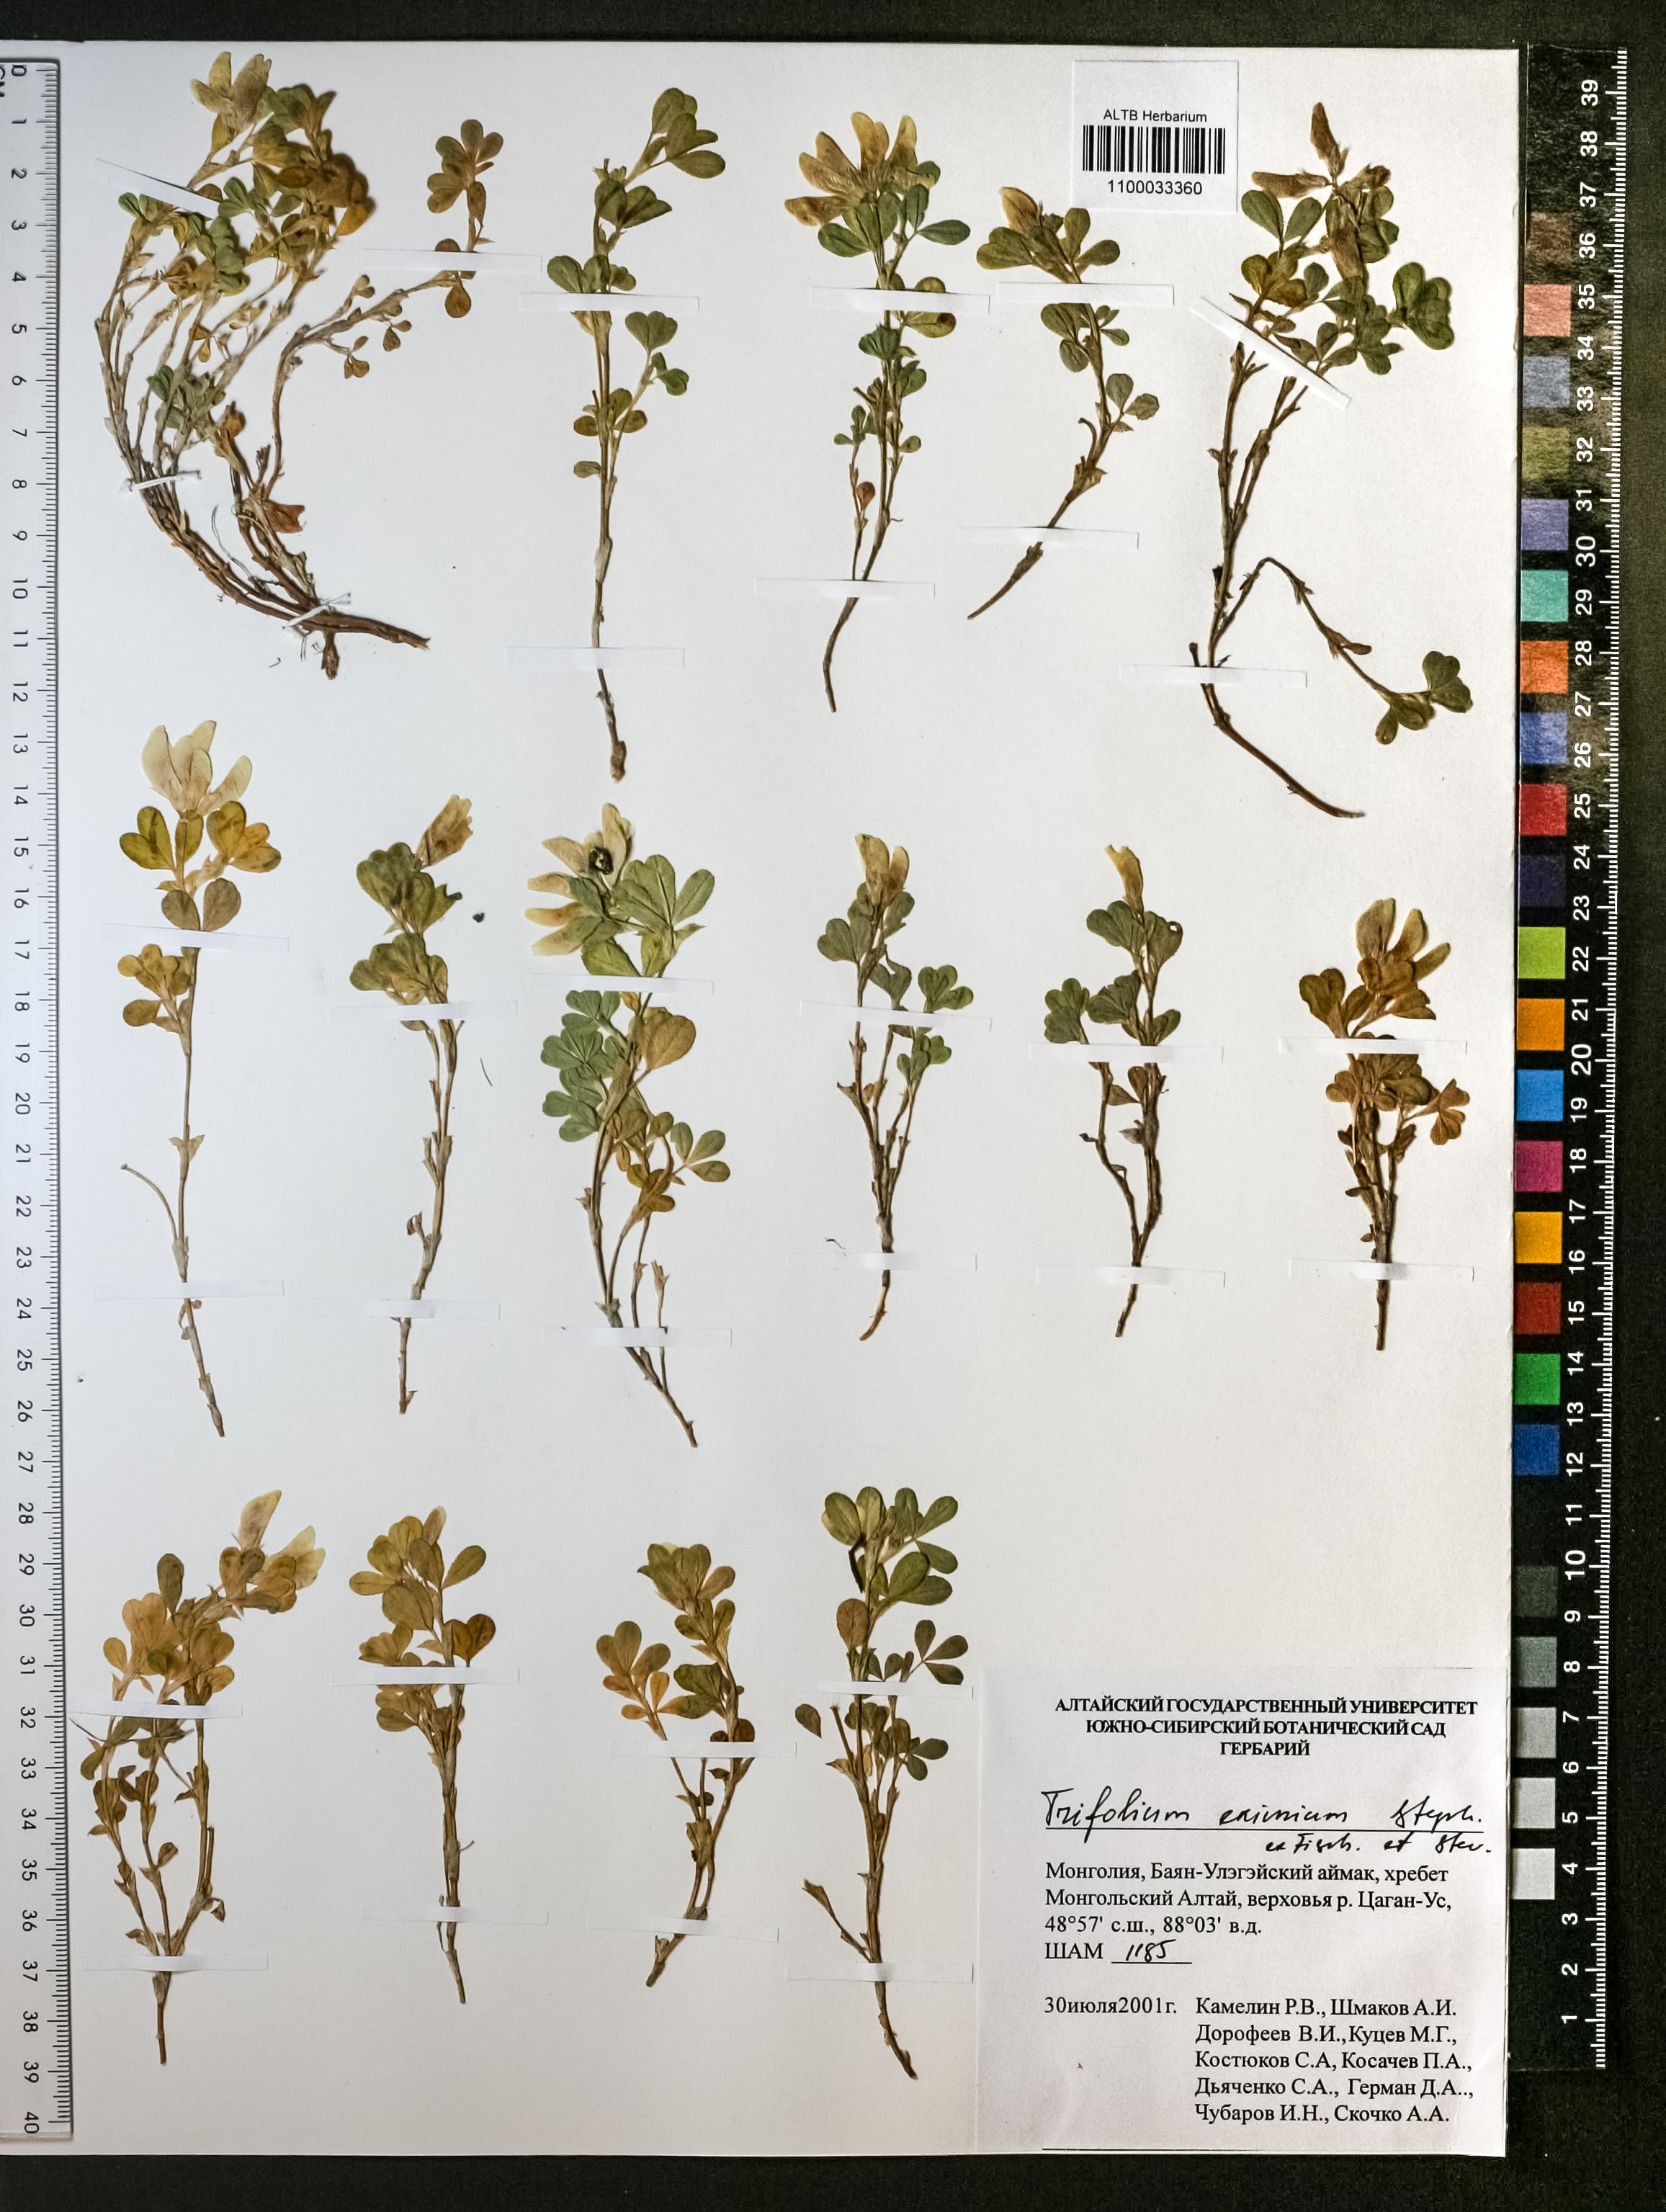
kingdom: Plantae
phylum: Tracheophyta
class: Magnoliopsida
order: Fabales
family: Fabaceae
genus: Trifolium
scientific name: Trifolium eximium
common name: Excellent clover
